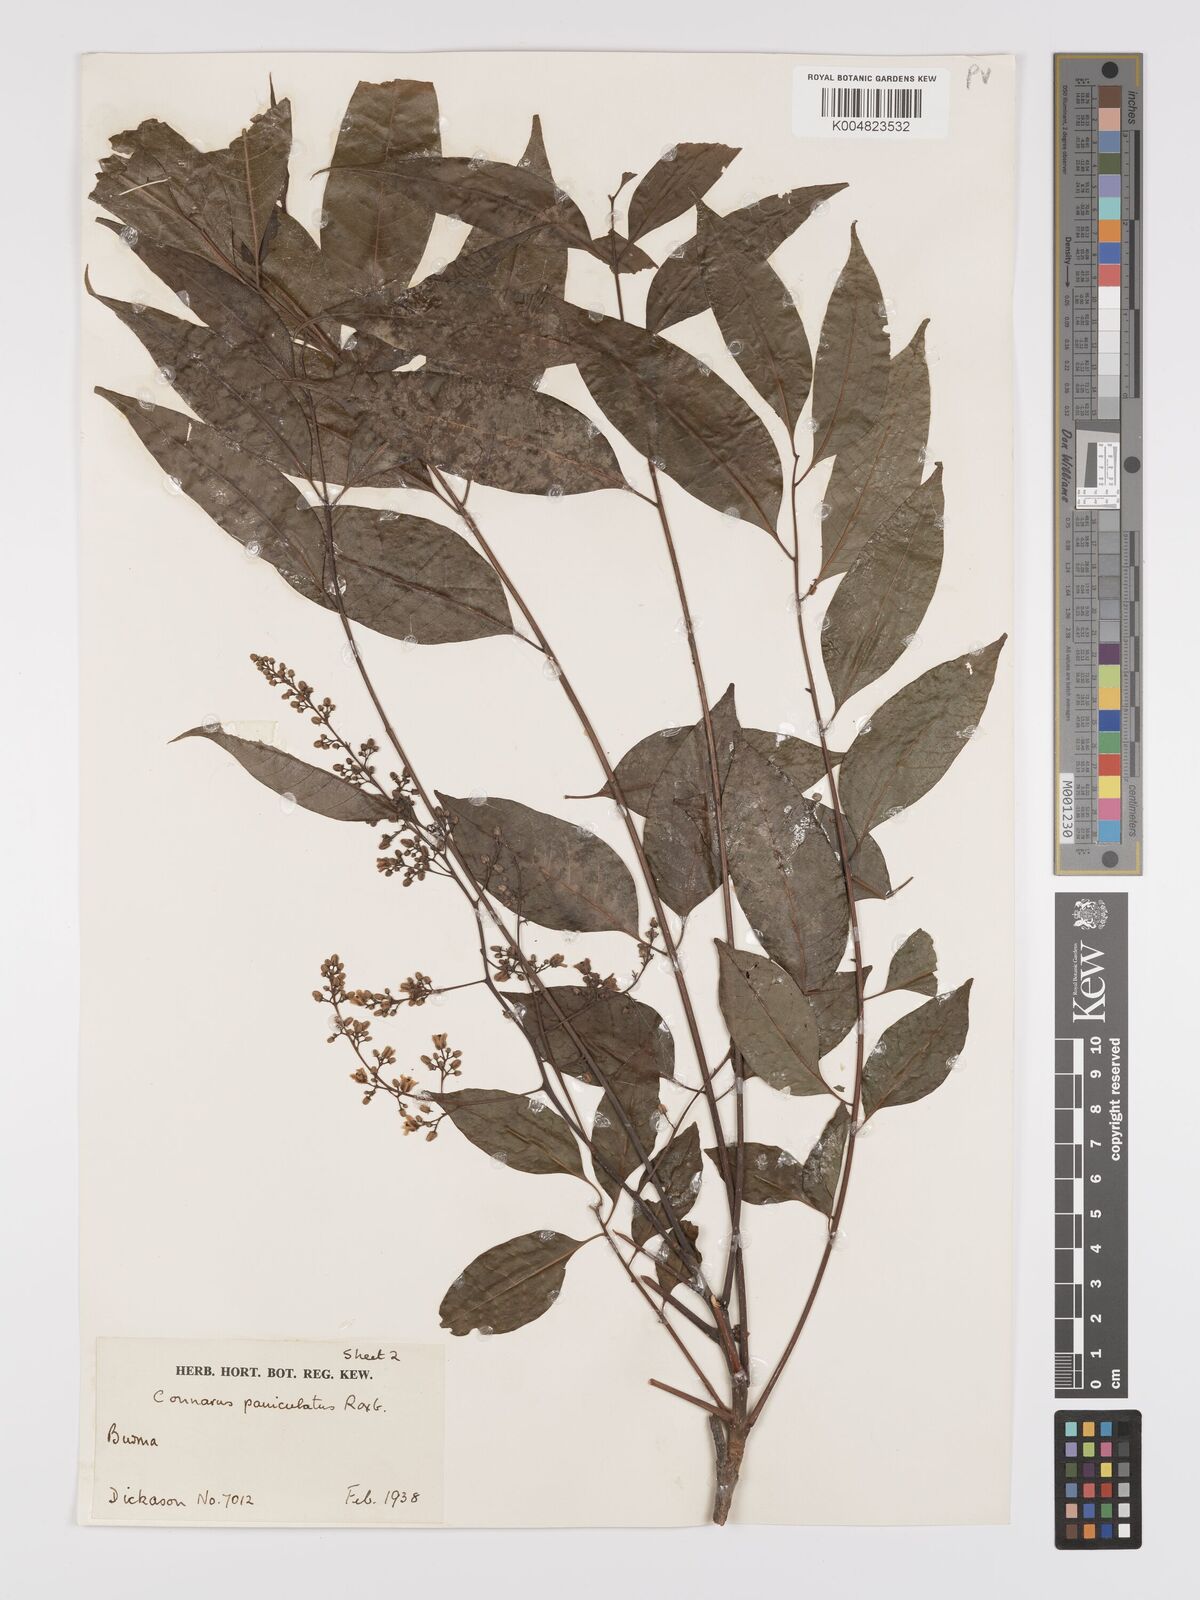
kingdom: Plantae
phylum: Tracheophyta
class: Magnoliopsida
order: Oxalidales
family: Connaraceae
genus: Connarus
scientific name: Connarus paniculatus
